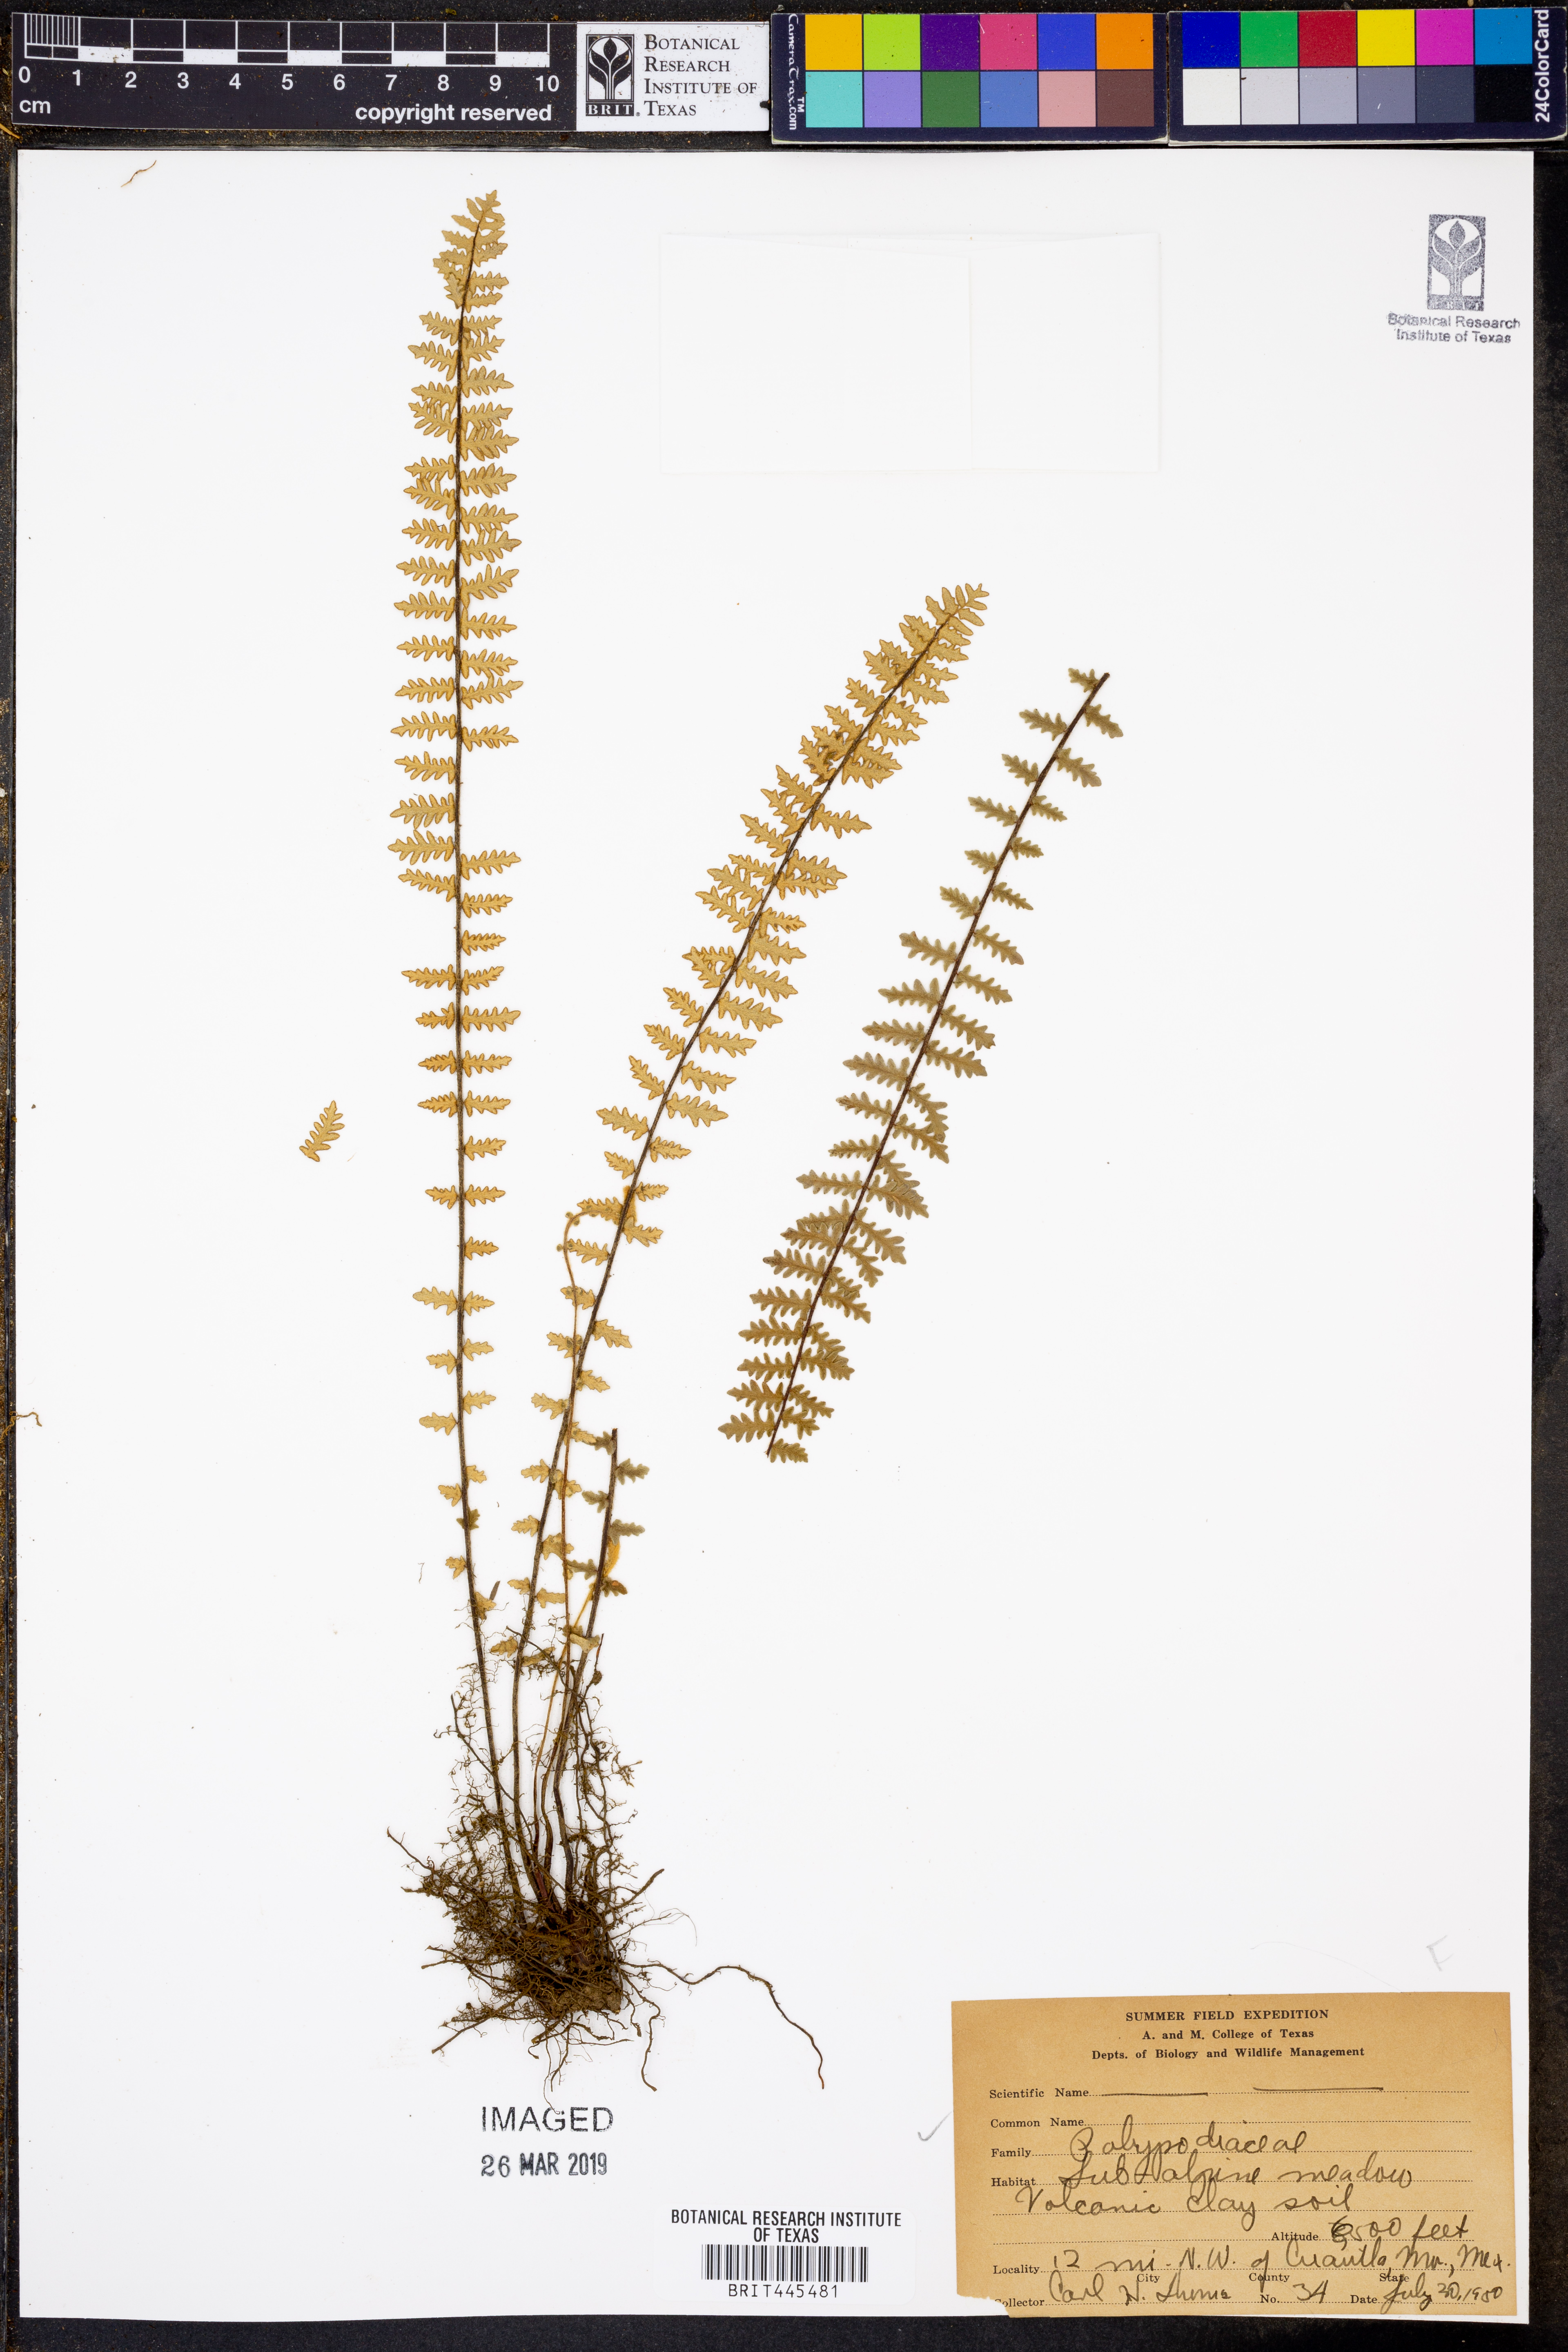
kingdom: Plantae
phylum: Tracheophyta
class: Polypodiopsida
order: Polypodiales
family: Polypodiaceae
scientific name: Polypodiaceae
